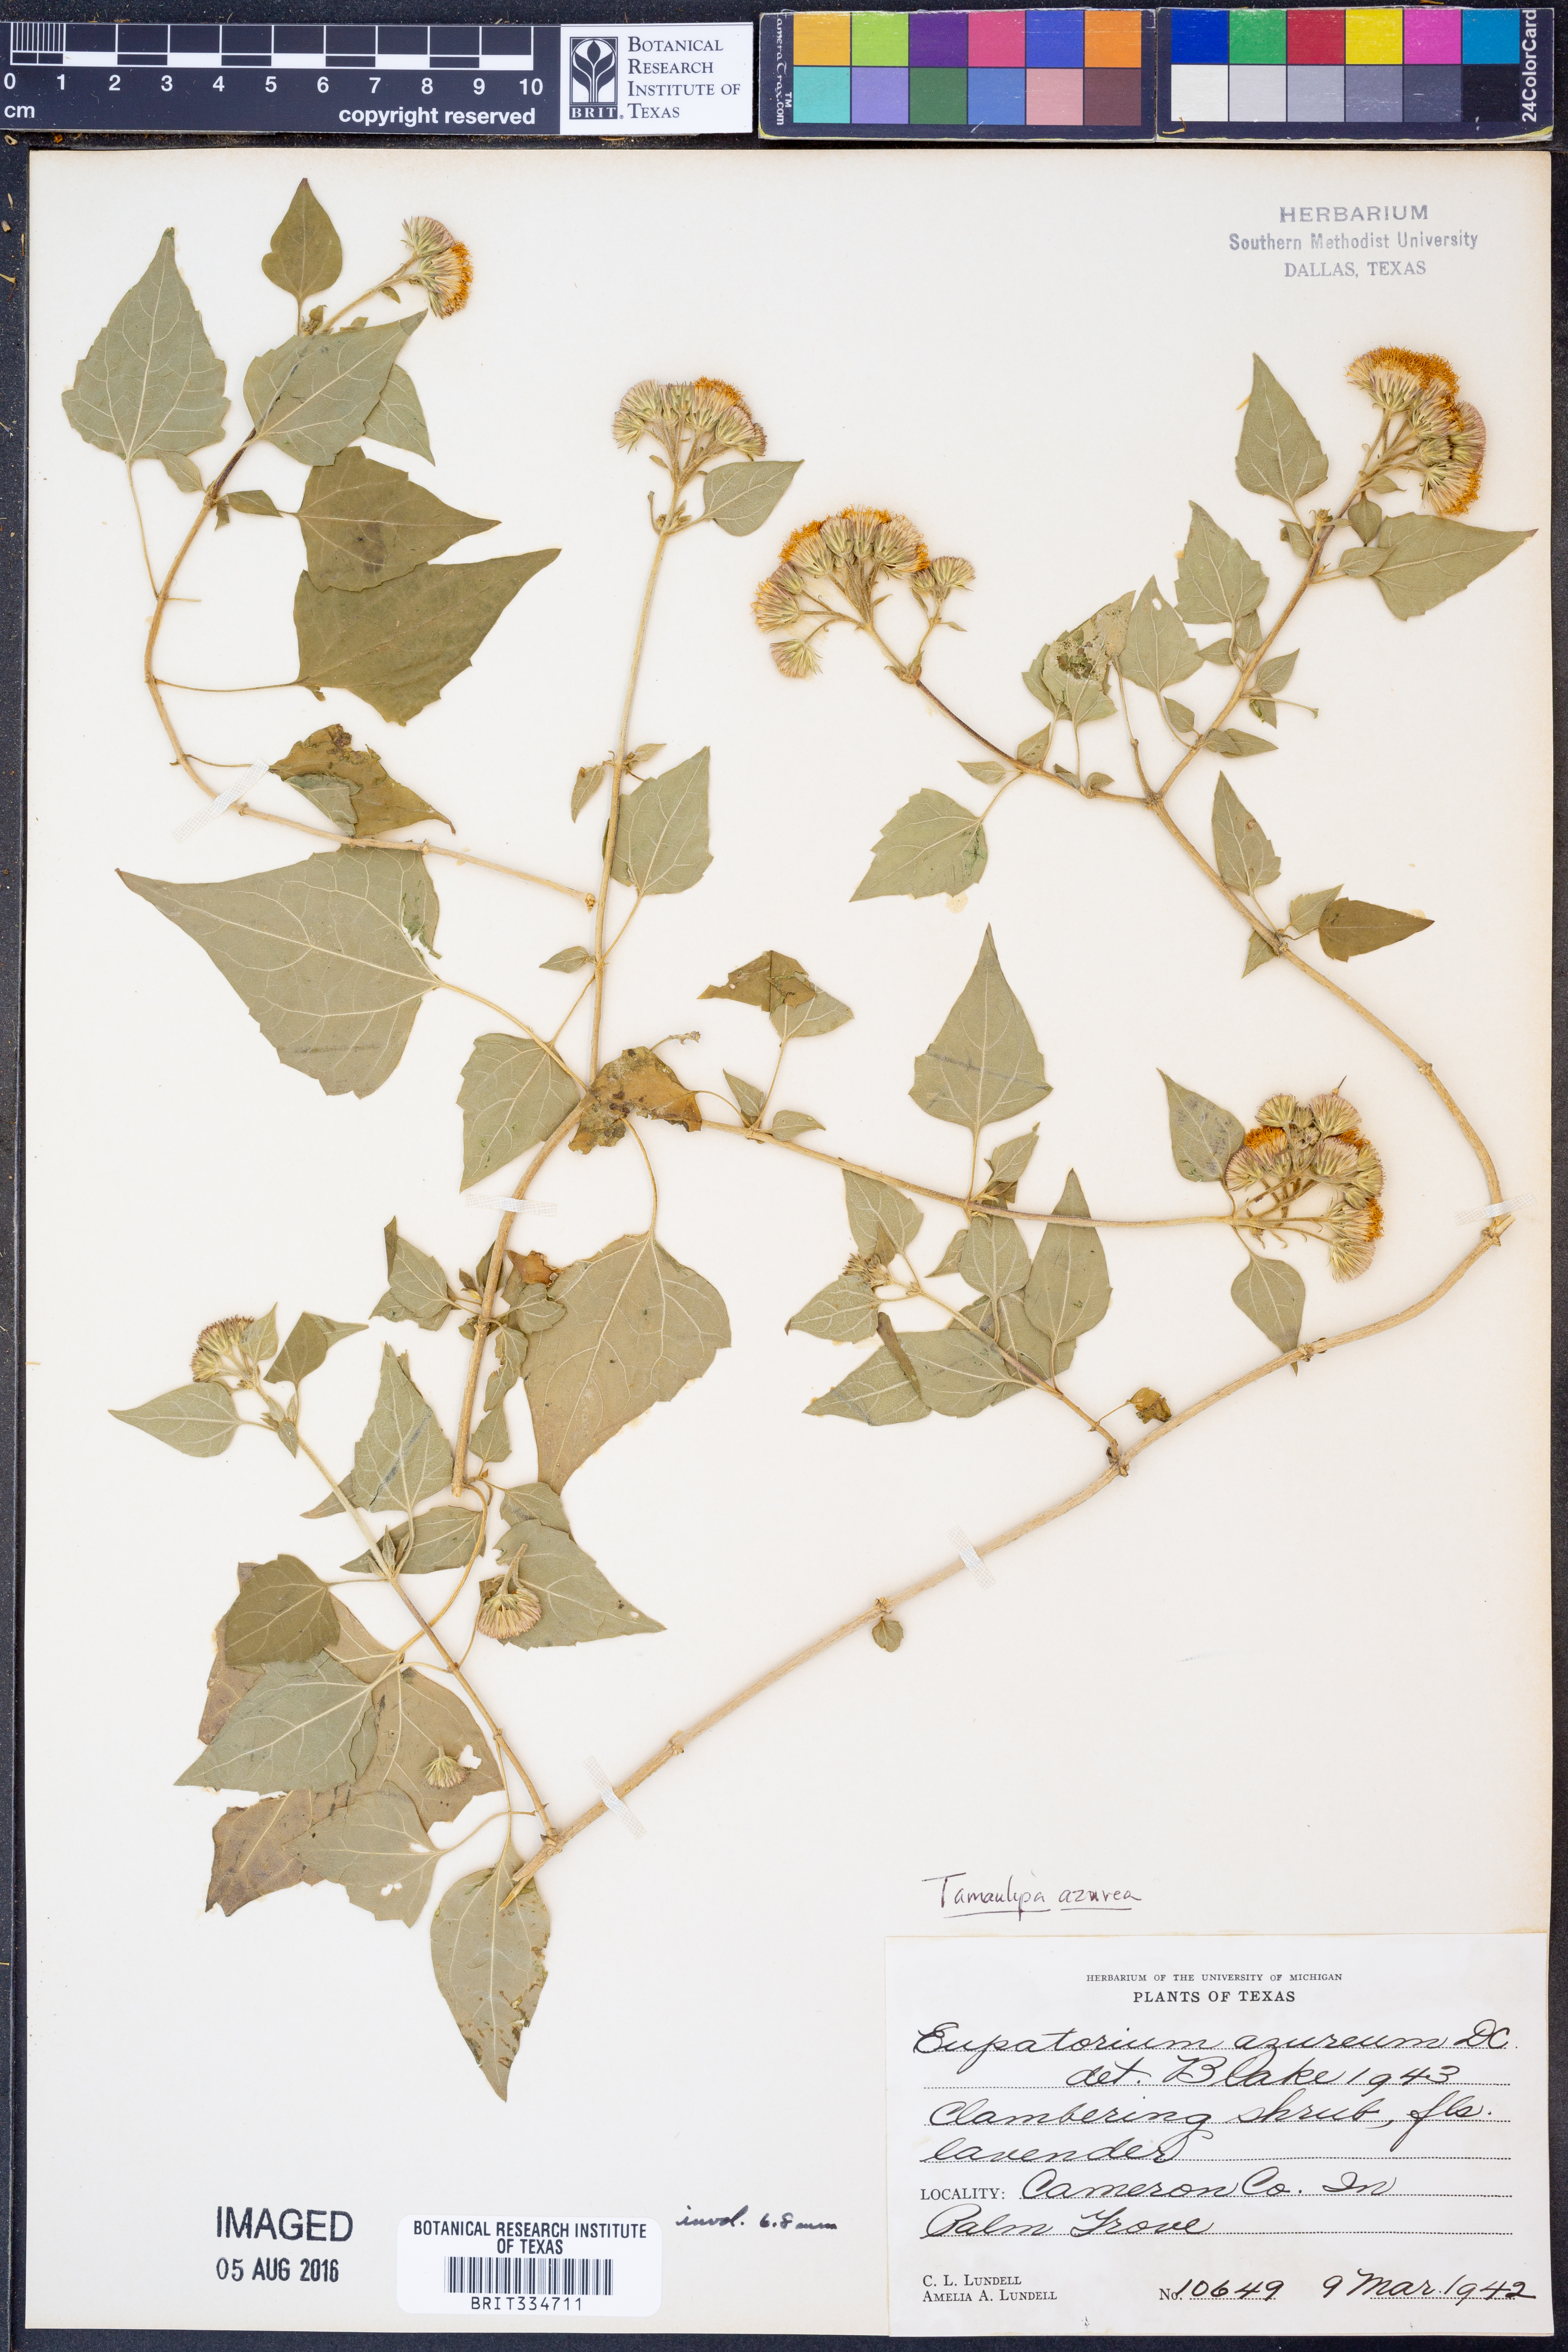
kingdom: Plantae
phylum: Tracheophyta
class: Magnoliopsida
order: Asterales
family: Asteraceae
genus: Tamaulipa
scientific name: Tamaulipa azurea
